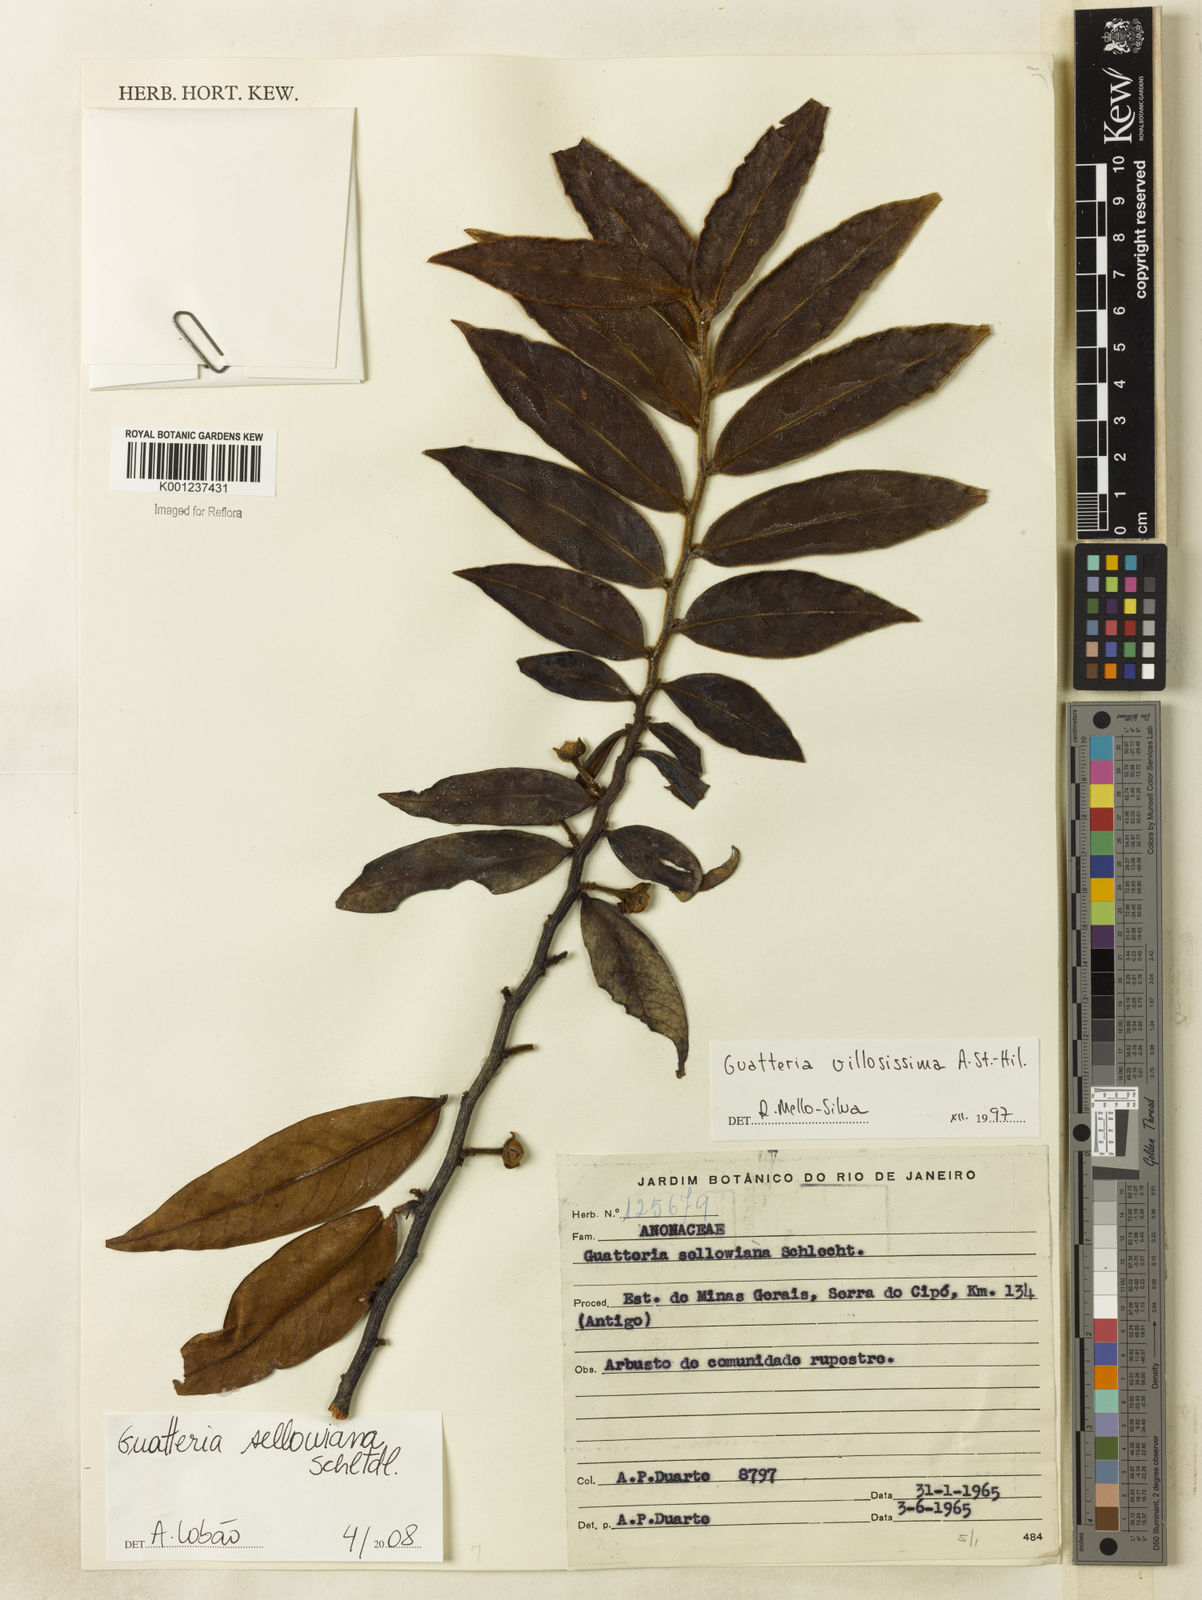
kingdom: Plantae
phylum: Tracheophyta
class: Magnoliopsida
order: Magnoliales
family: Annonaceae
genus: Guatteria
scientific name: Guatteria sellowiana
